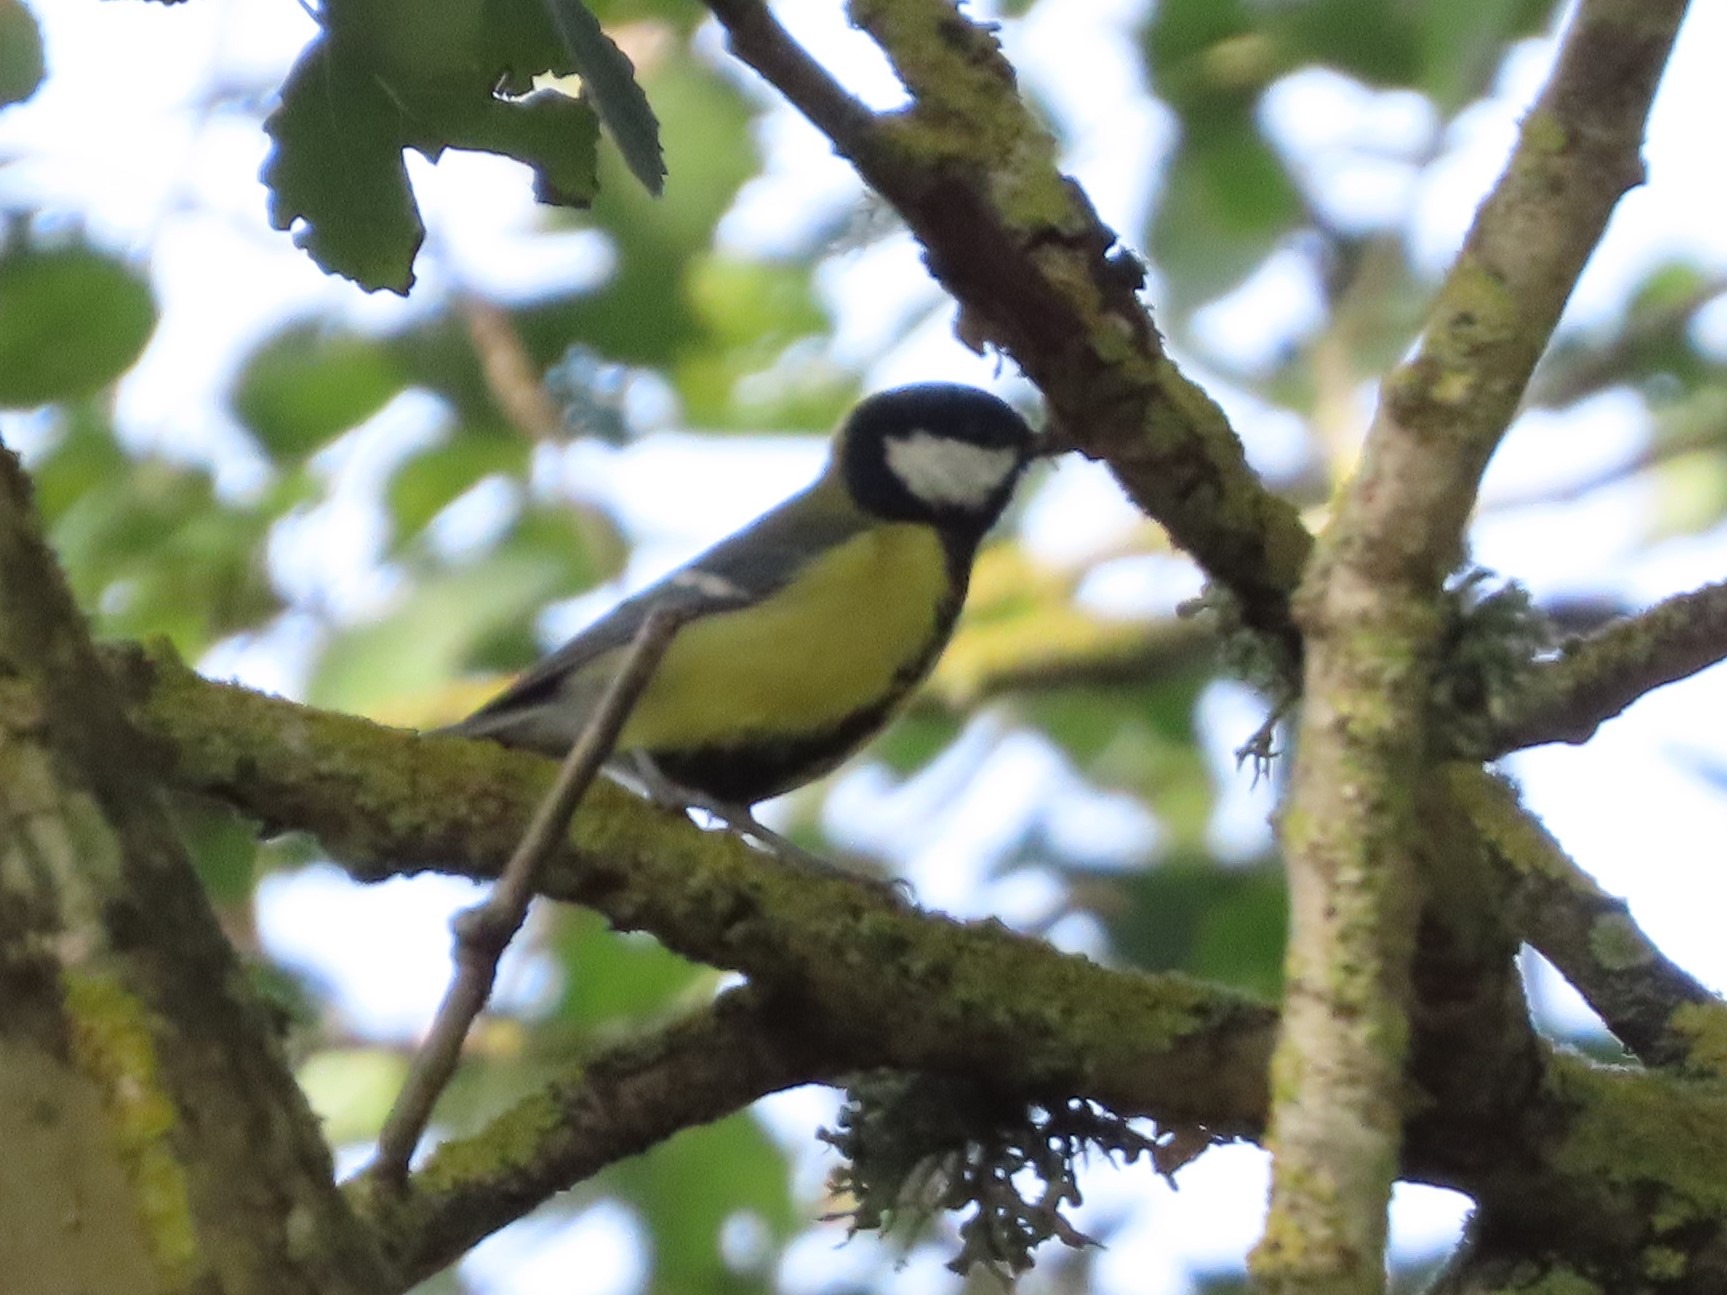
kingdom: Animalia
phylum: Chordata
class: Aves
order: Passeriformes
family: Paridae
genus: Parus
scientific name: Parus major
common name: Musvit
